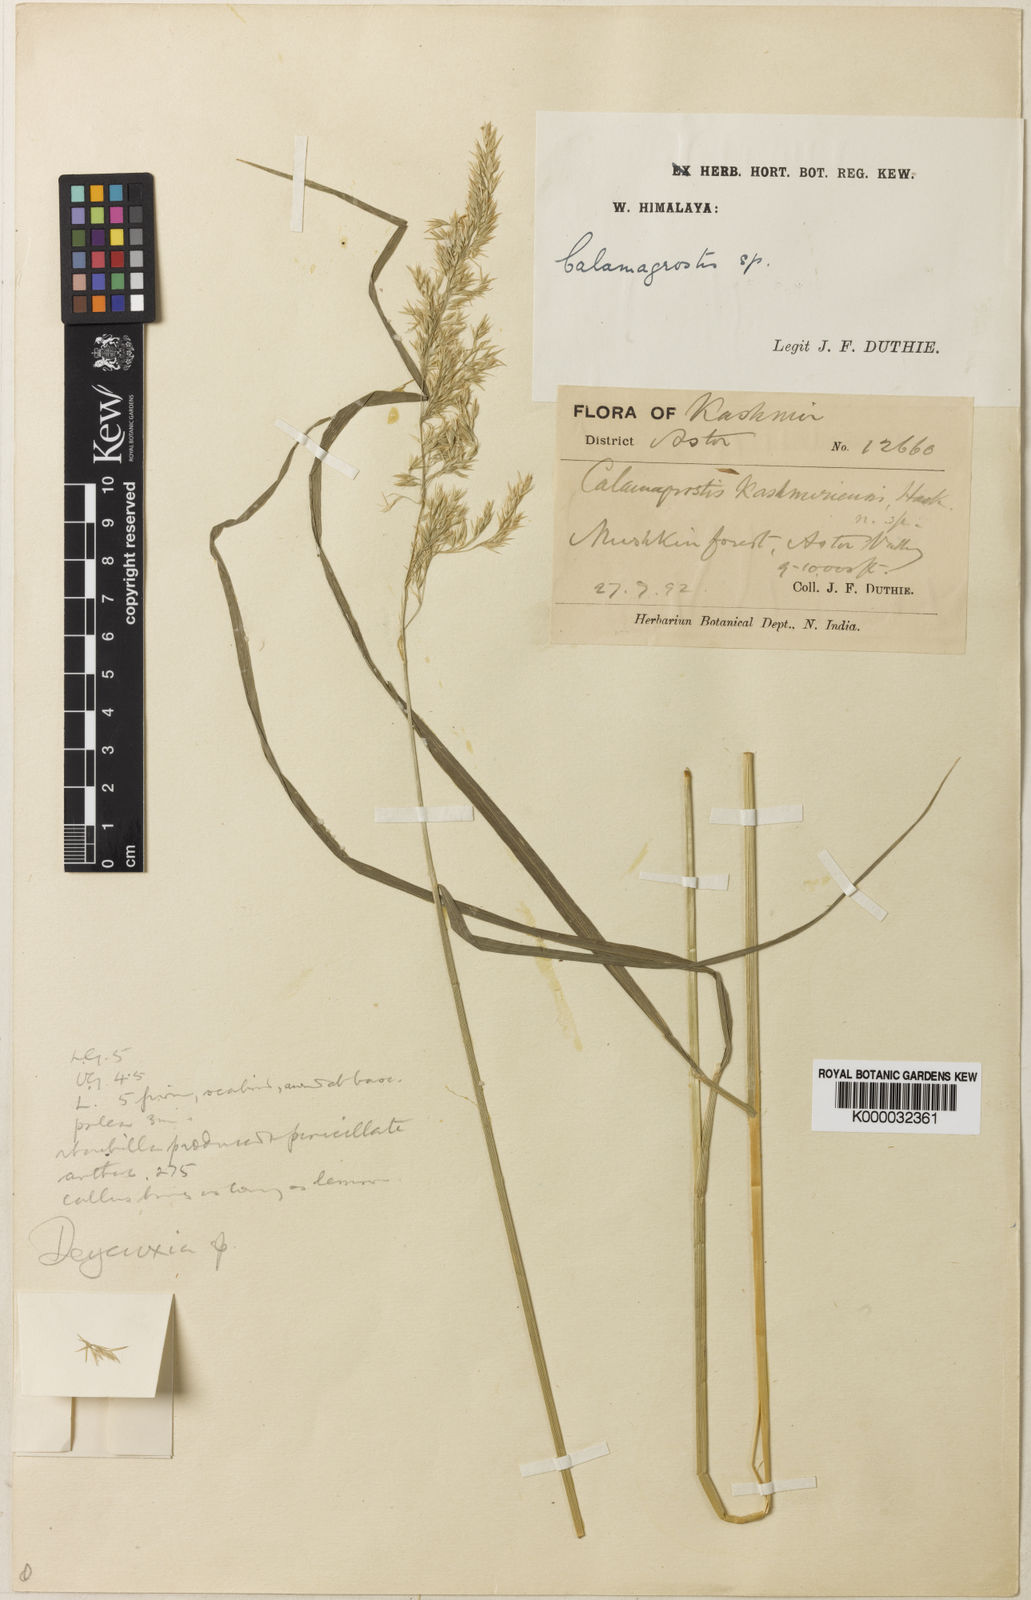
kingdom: Plantae
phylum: Tracheophyta
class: Liliopsida
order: Poales
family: Poaceae
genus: Calamagrostis
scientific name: Calamagrostis decora
